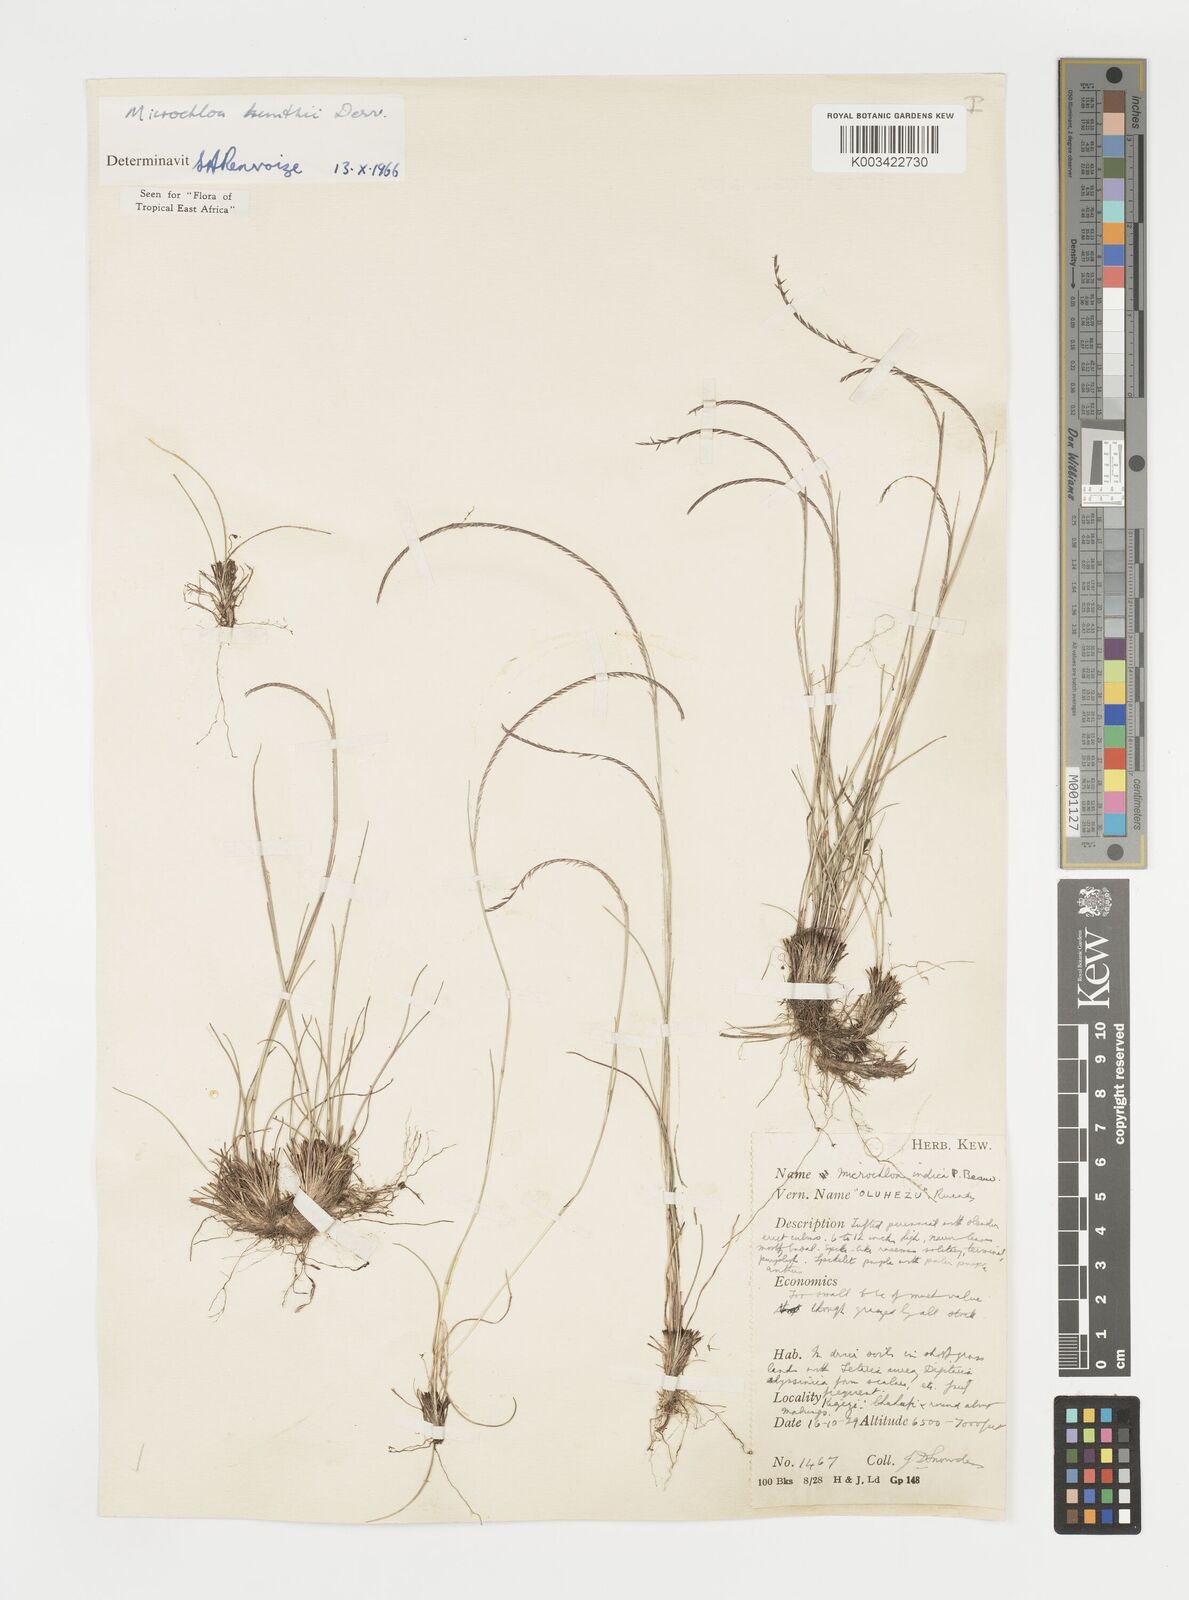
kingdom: Plantae
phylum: Tracheophyta
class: Liliopsida
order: Poales
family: Poaceae
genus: Microchloa
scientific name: Microchloa kunthii
